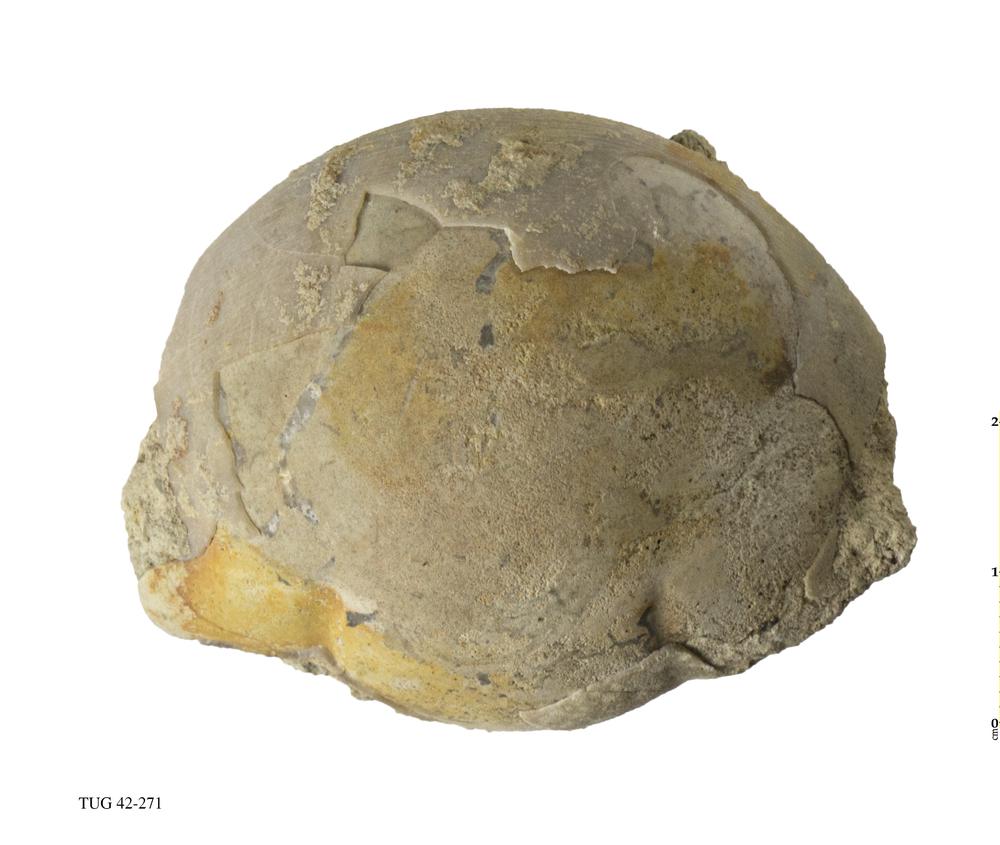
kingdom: Animalia
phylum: Arthropoda
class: Trilobita
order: Corynexochida
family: Illaenidae
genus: Illaenus
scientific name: Illaenus
